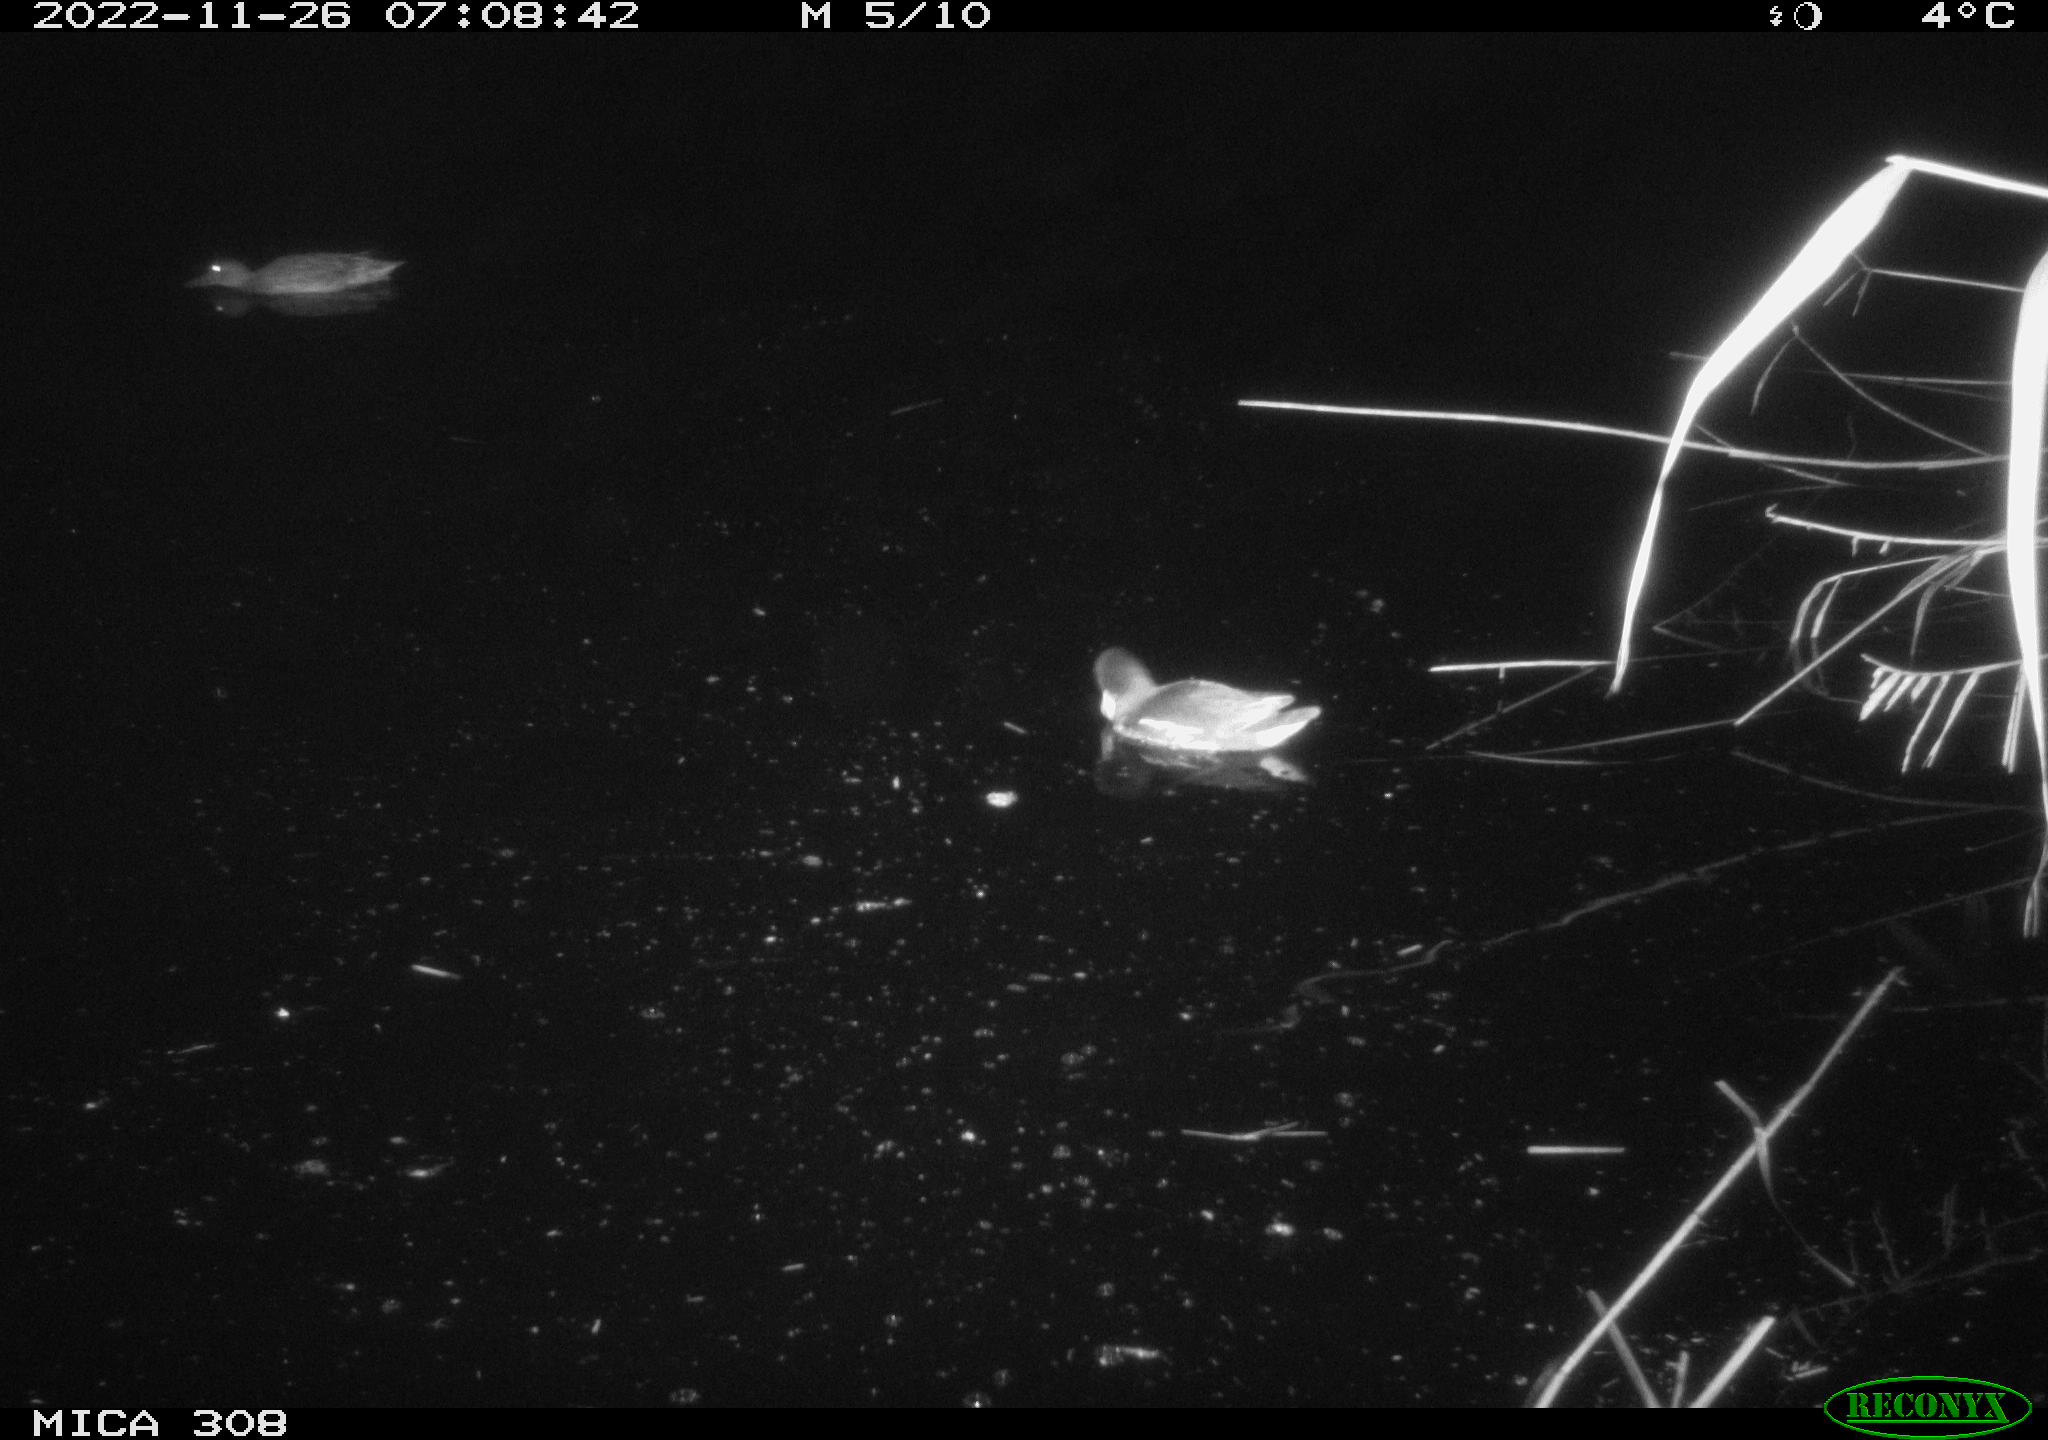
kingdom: Animalia
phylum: Chordata
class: Aves
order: Gruiformes
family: Rallidae
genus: Gallinula
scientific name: Gallinula chloropus
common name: Common moorhen
